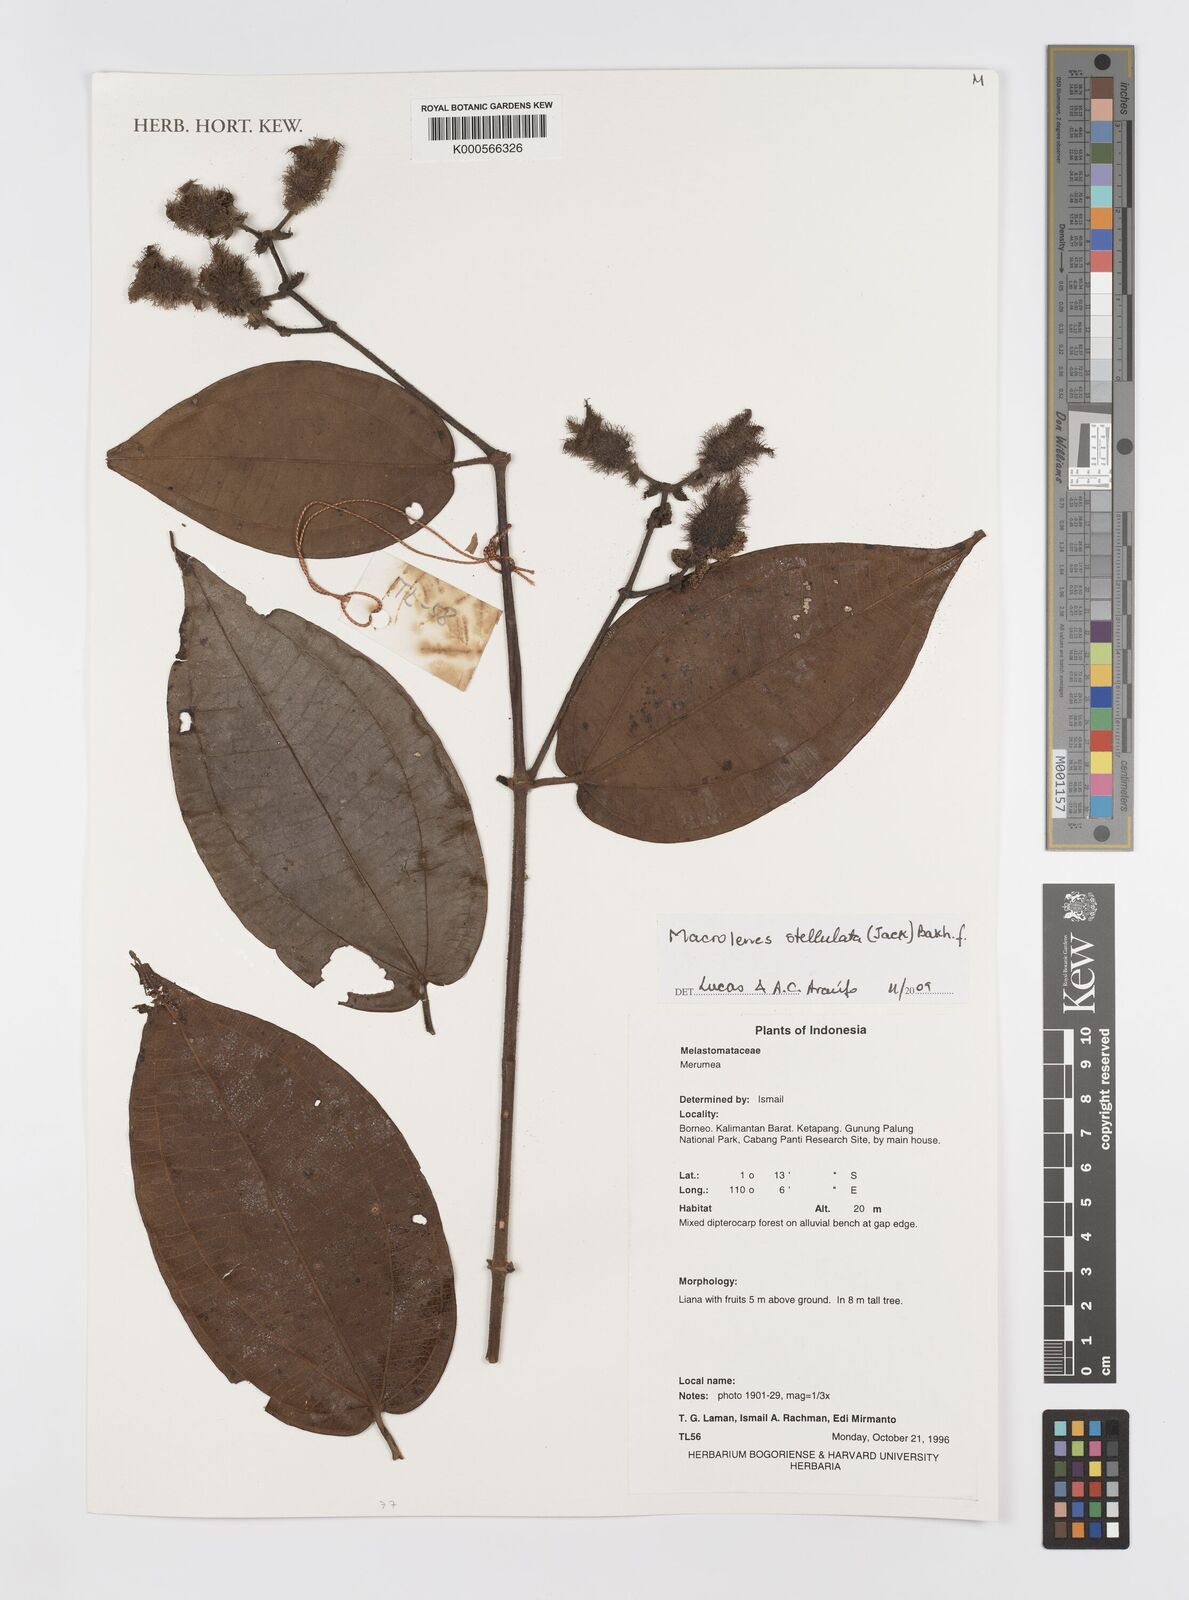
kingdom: Plantae
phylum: Tracheophyta
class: Magnoliopsida
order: Myrtales
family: Melastomataceae
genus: Macrolenes
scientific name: Macrolenes stellulata
